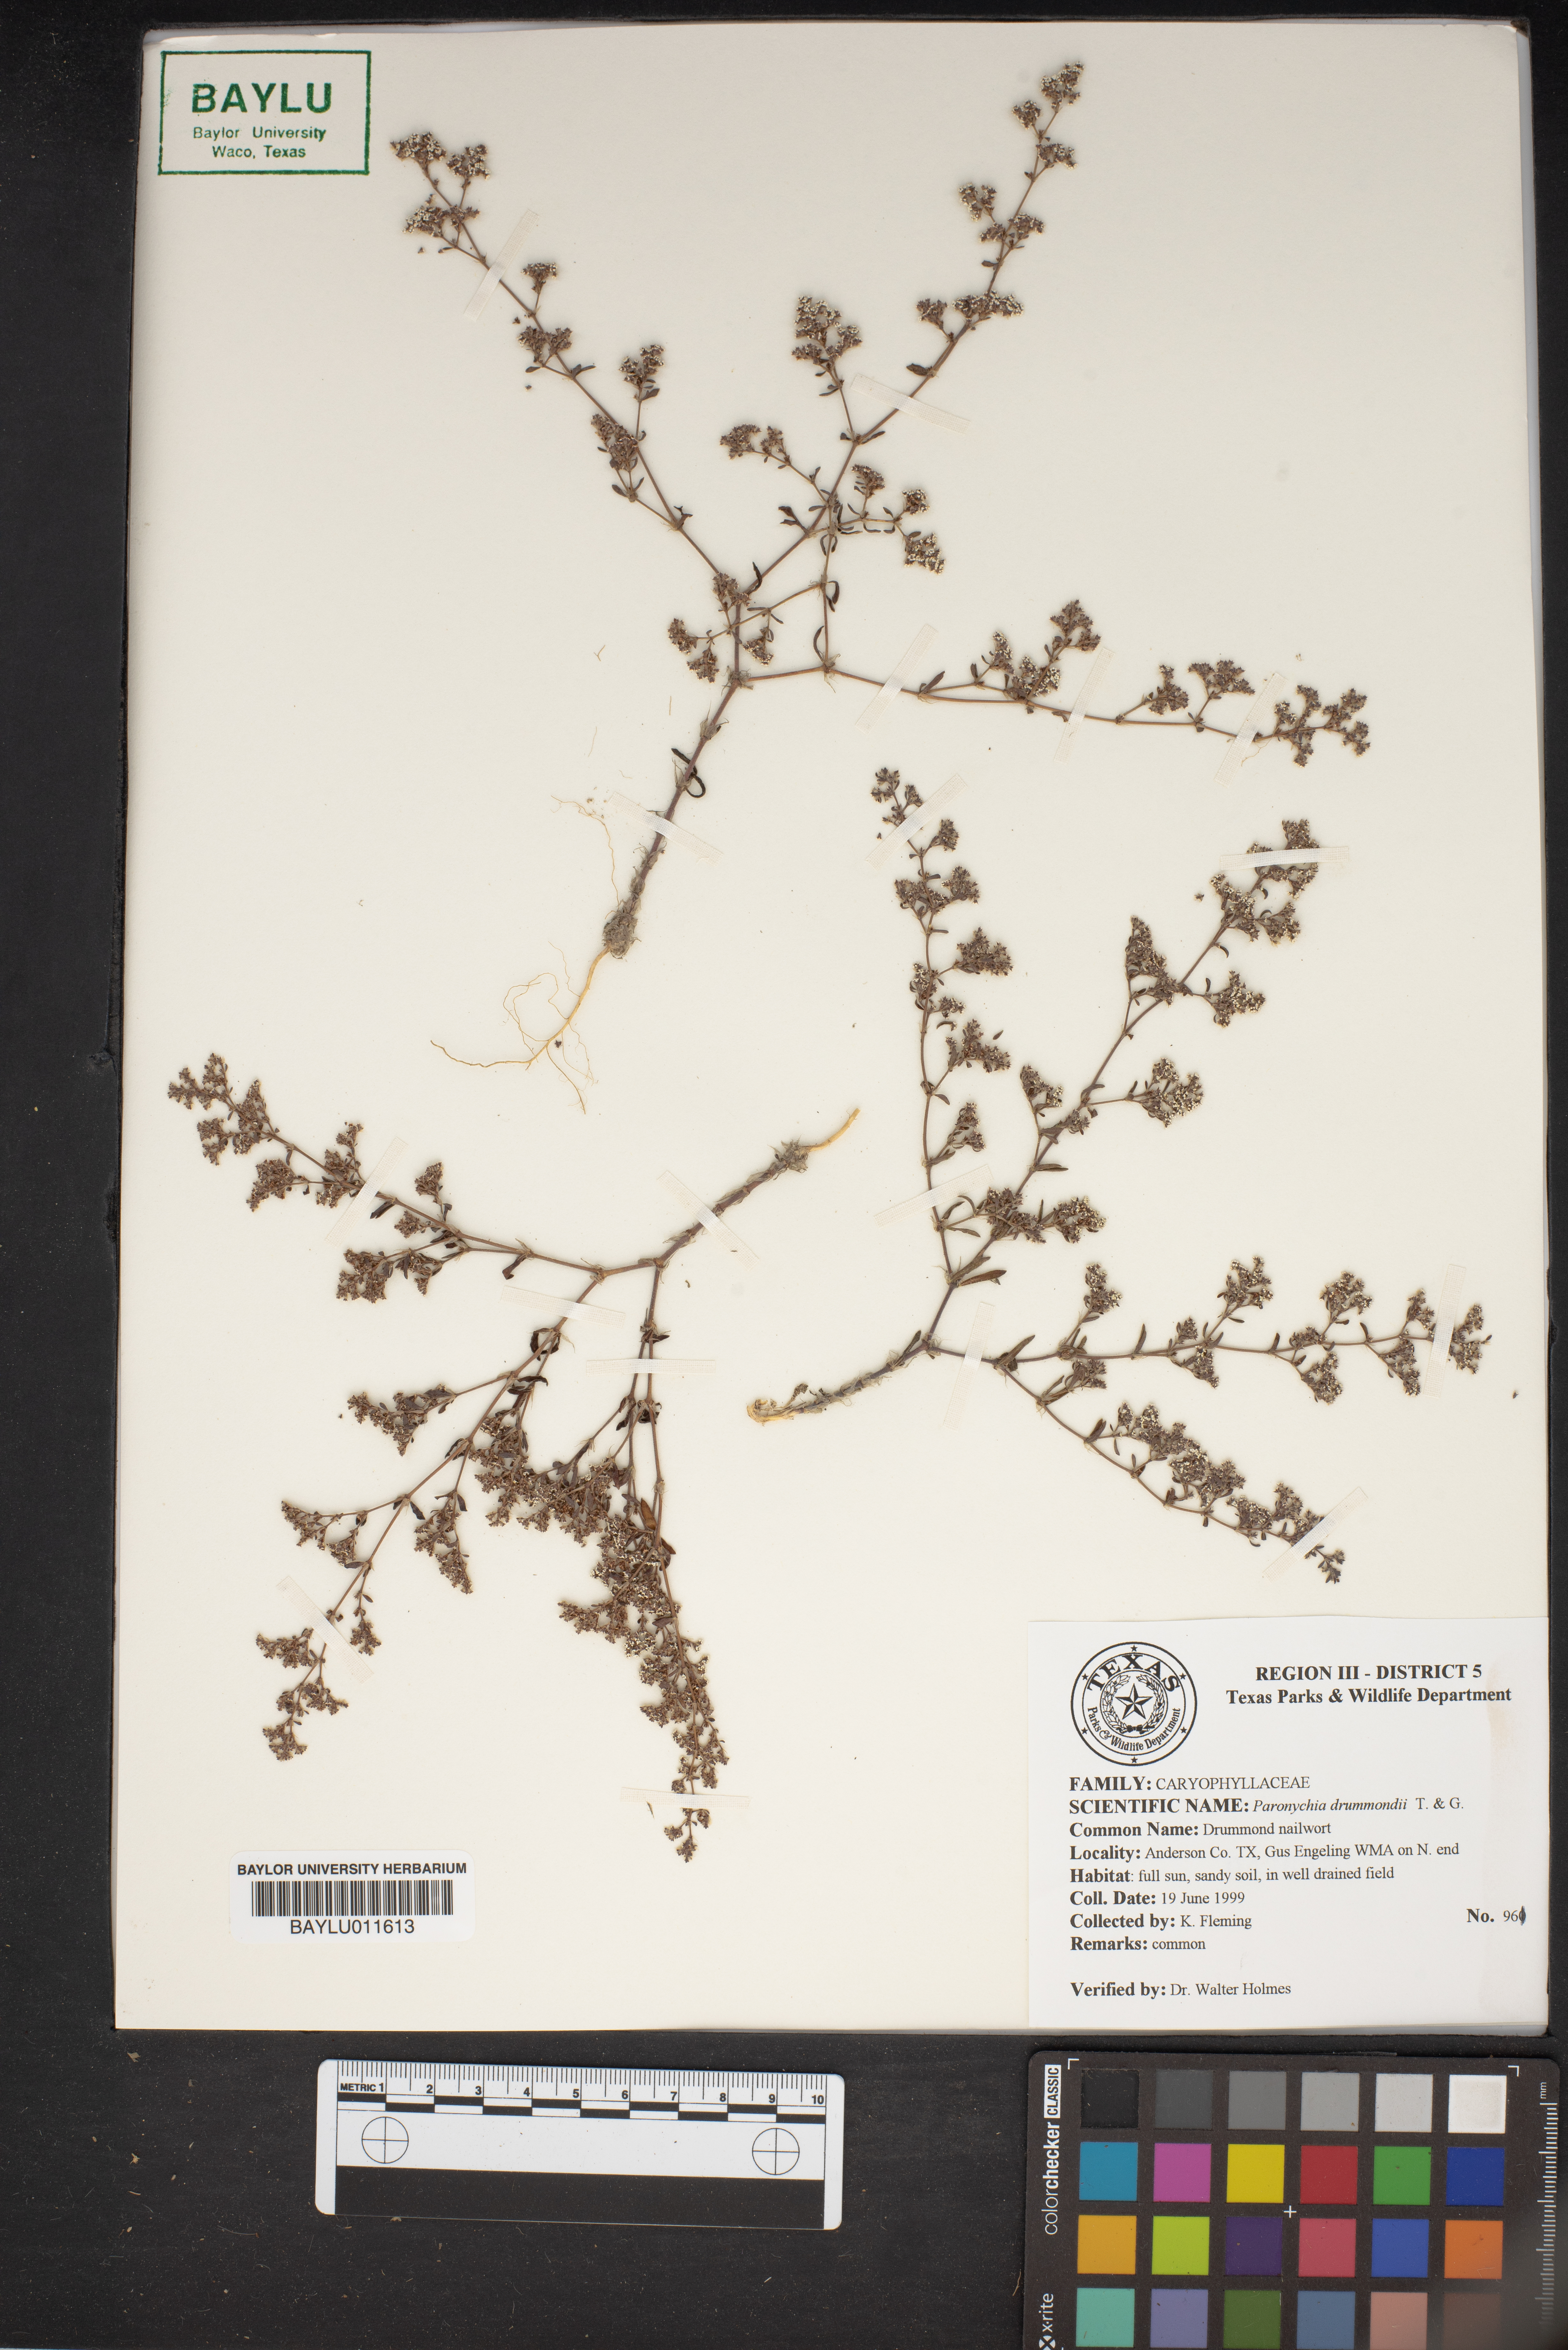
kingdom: Plantae
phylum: Tracheophyta
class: Magnoliopsida
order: Caryophyllales
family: Caryophyllaceae
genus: Paronychia
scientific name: Paronychia drummondii
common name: Drummond's nailwort
